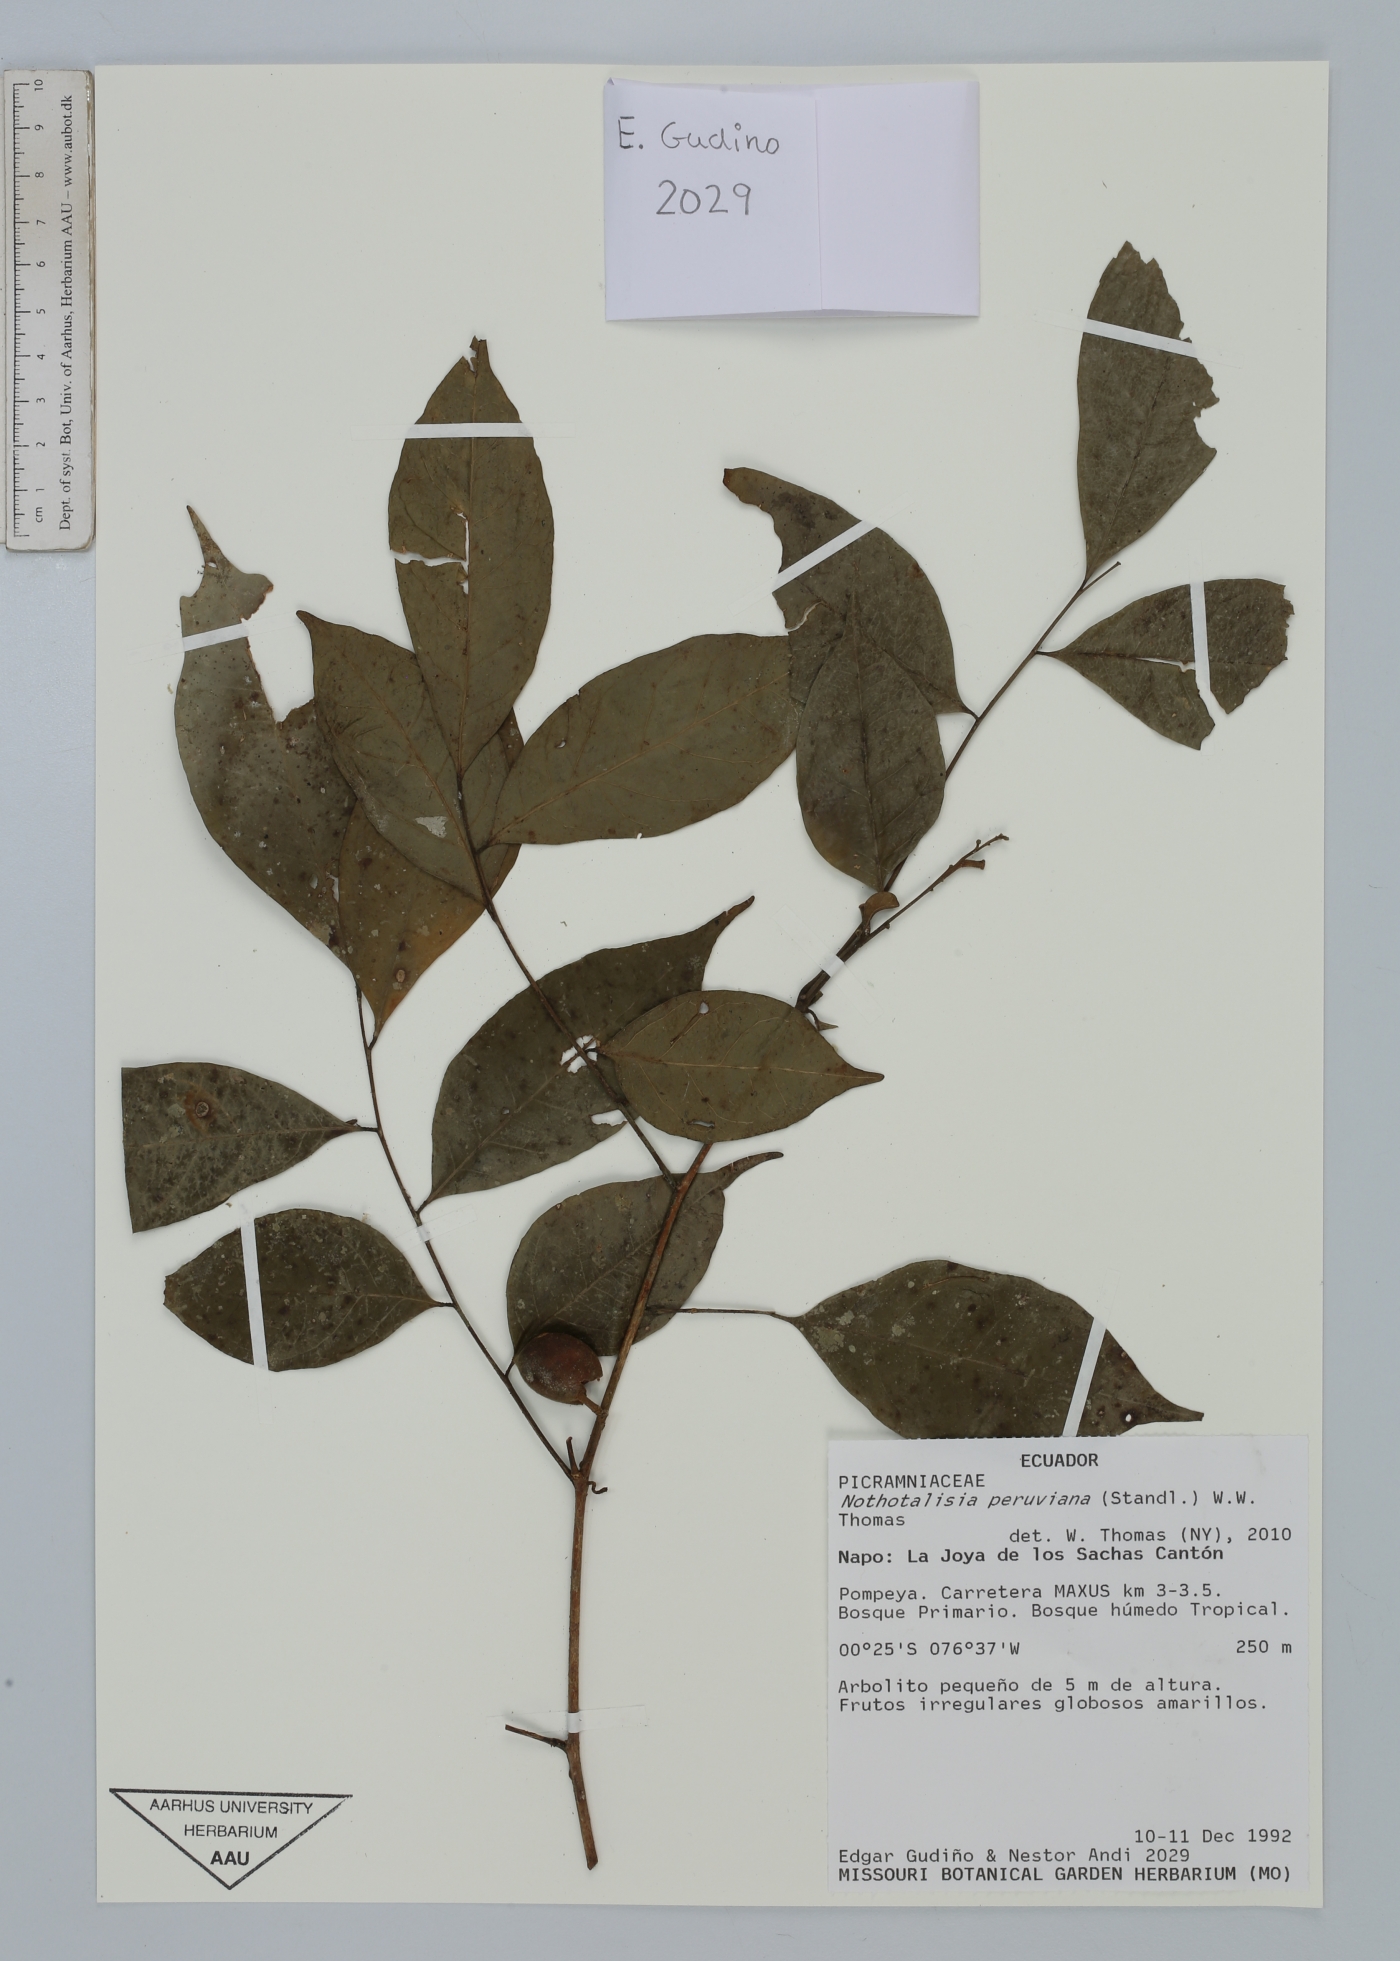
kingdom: Plantae
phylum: Tracheophyta
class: Magnoliopsida
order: Picramniales
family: Picramniaceae
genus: Nothotalisia
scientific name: Nothotalisia peruviana
